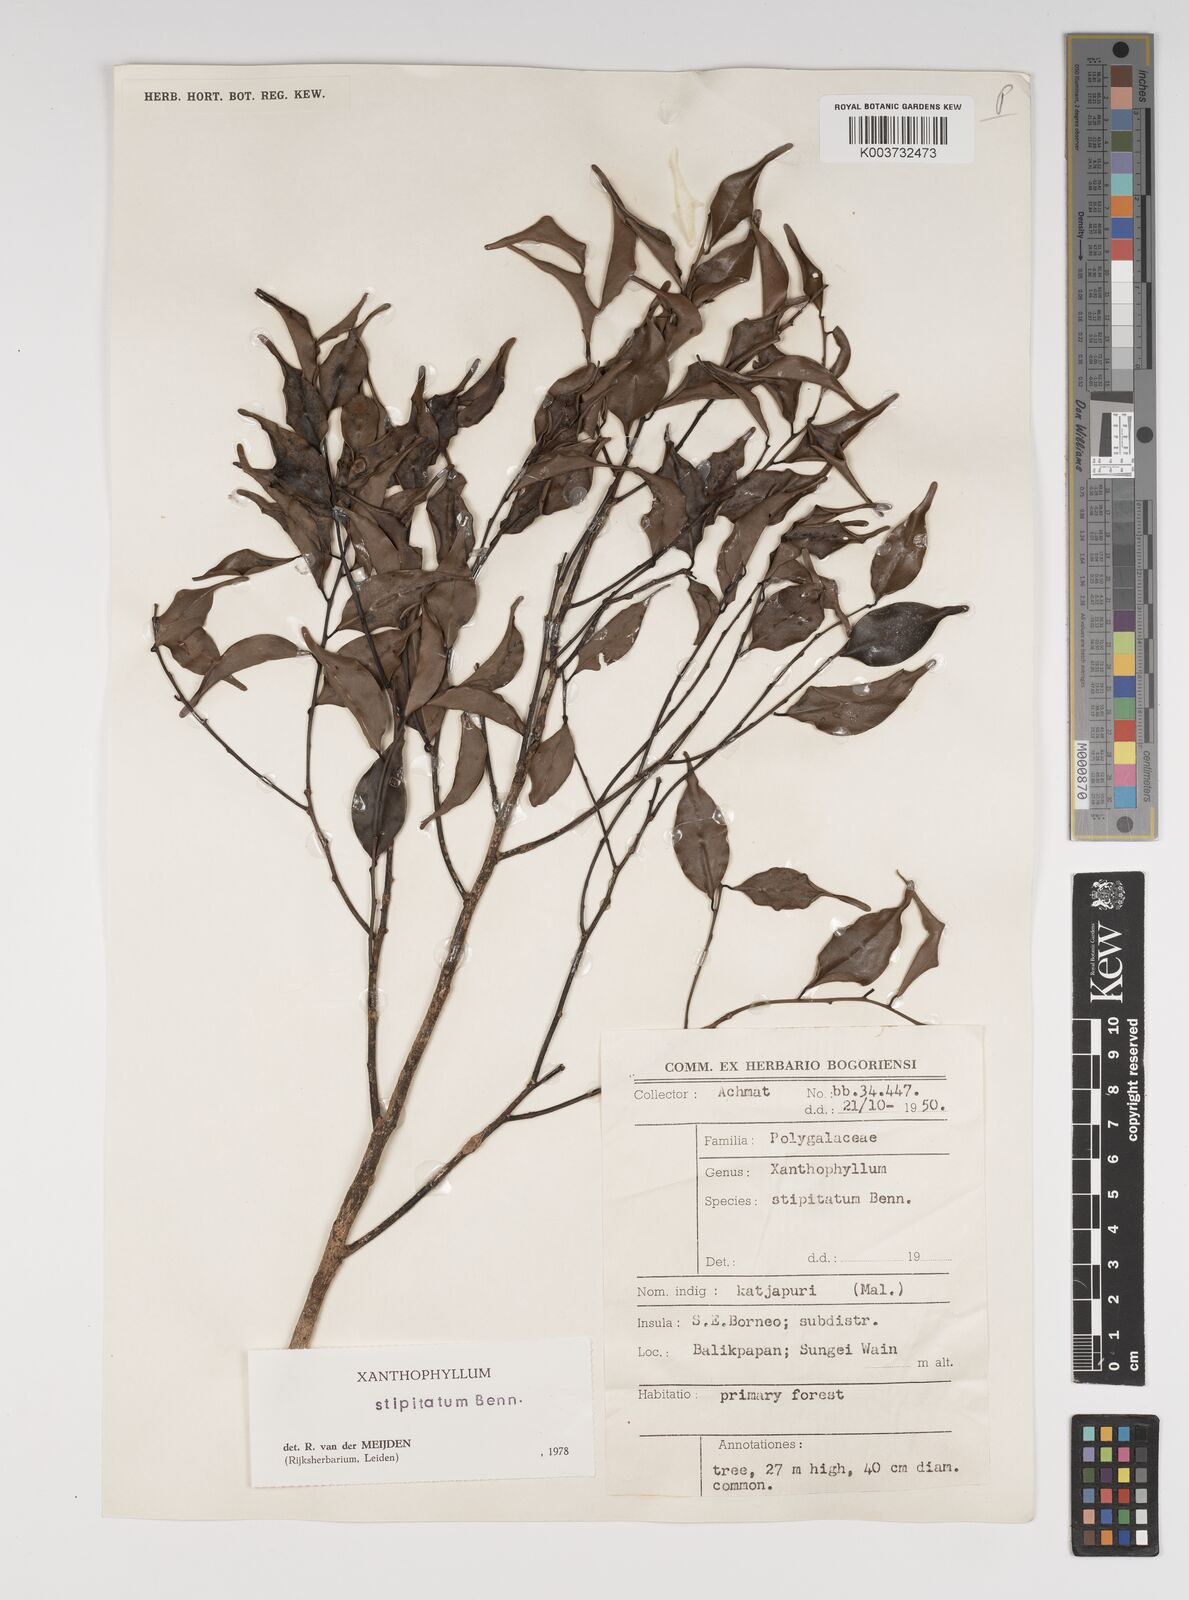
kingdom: Plantae
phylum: Tracheophyta
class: Magnoliopsida
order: Fabales
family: Polygalaceae
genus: Xanthophyllum
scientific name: Xanthophyllum stipitatum
